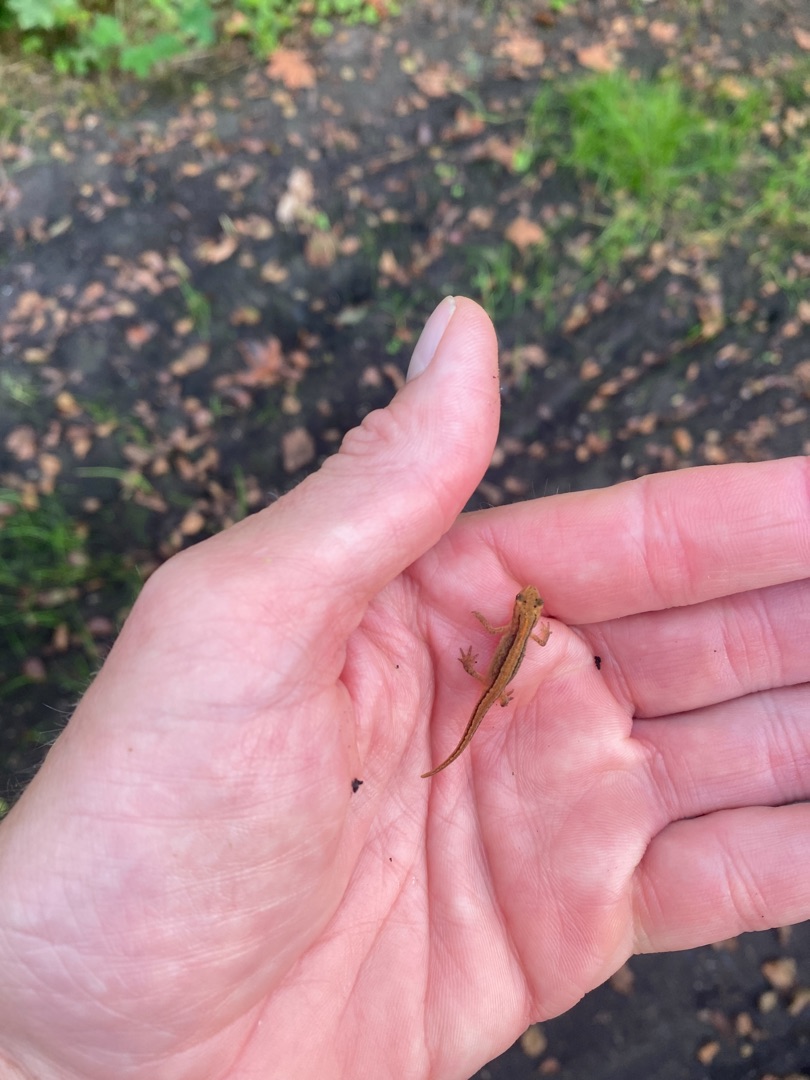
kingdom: Animalia
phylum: Chordata
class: Amphibia
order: Caudata
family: Salamandridae
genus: Lissotriton
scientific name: Lissotriton vulgaris
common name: Lille vandsalamander
